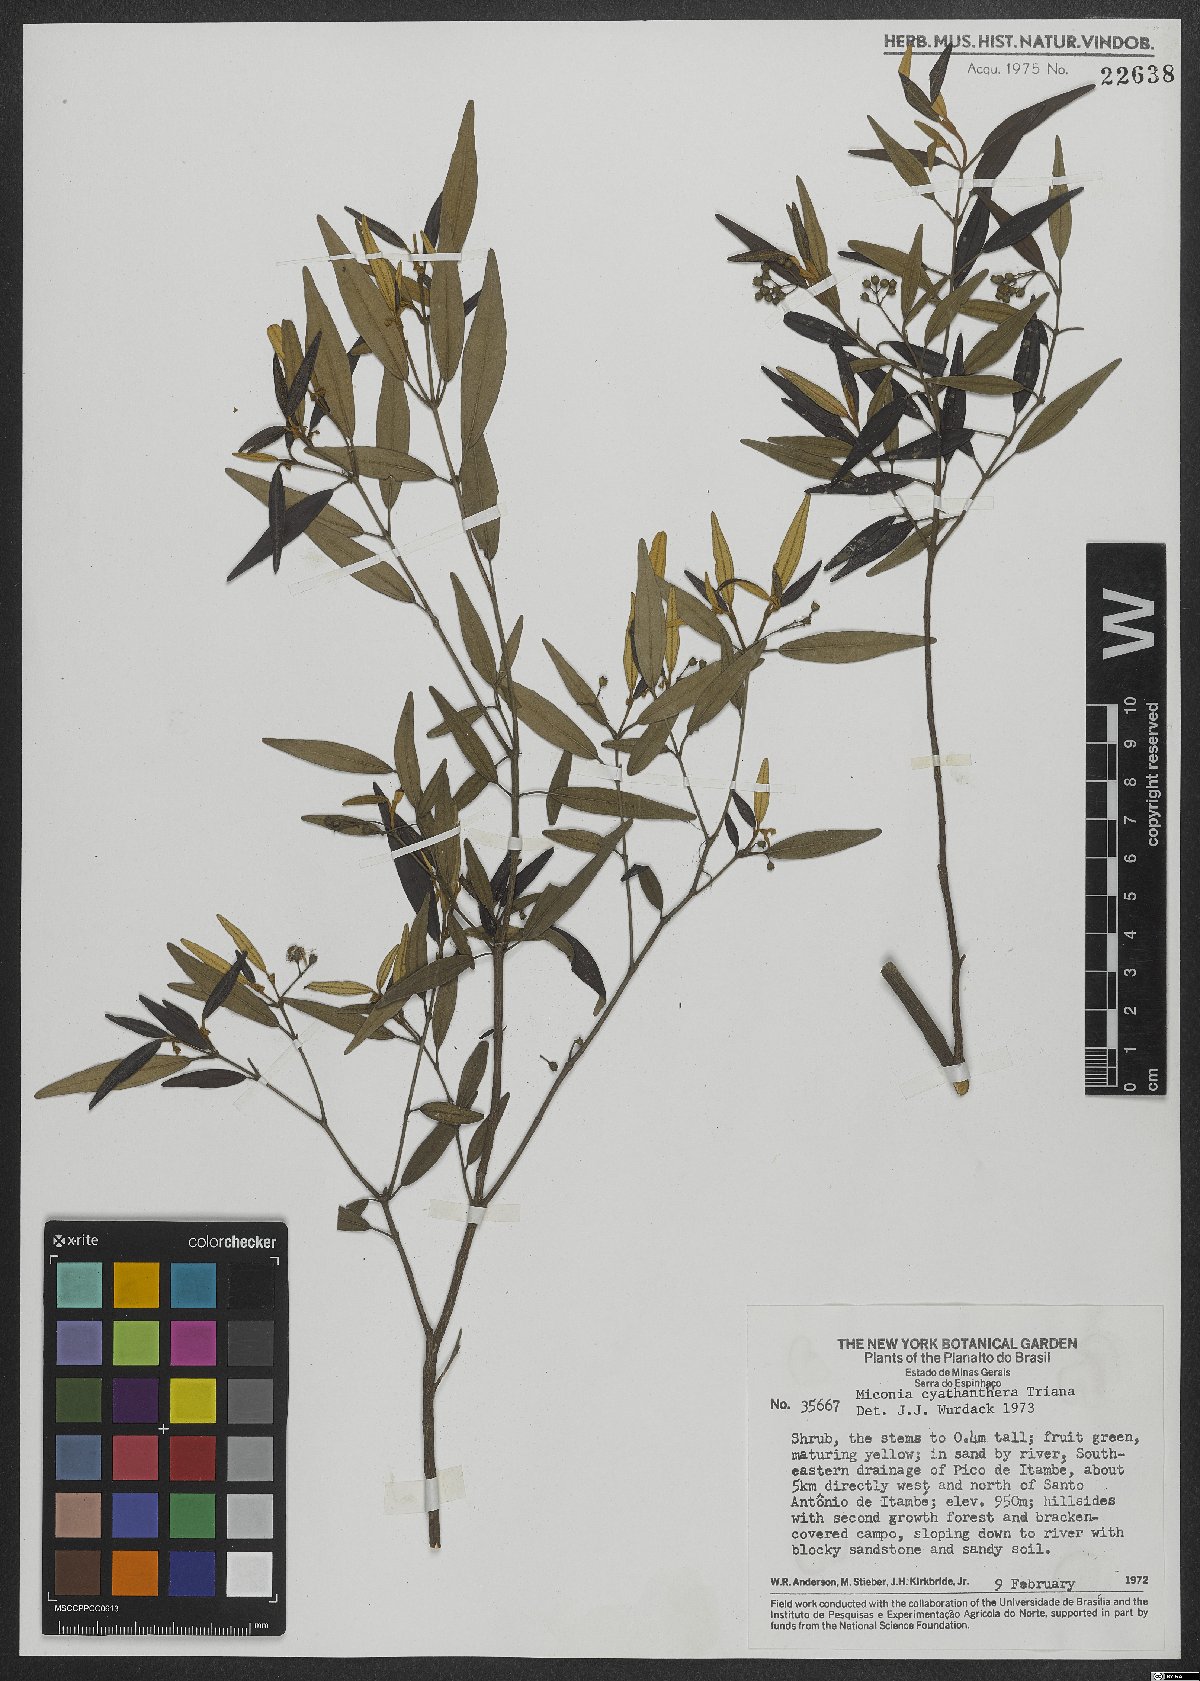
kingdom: Plantae
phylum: Tracheophyta
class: Magnoliopsida
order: Myrtales
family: Melastomataceae
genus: Miconia
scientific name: Miconia cyathanthera
